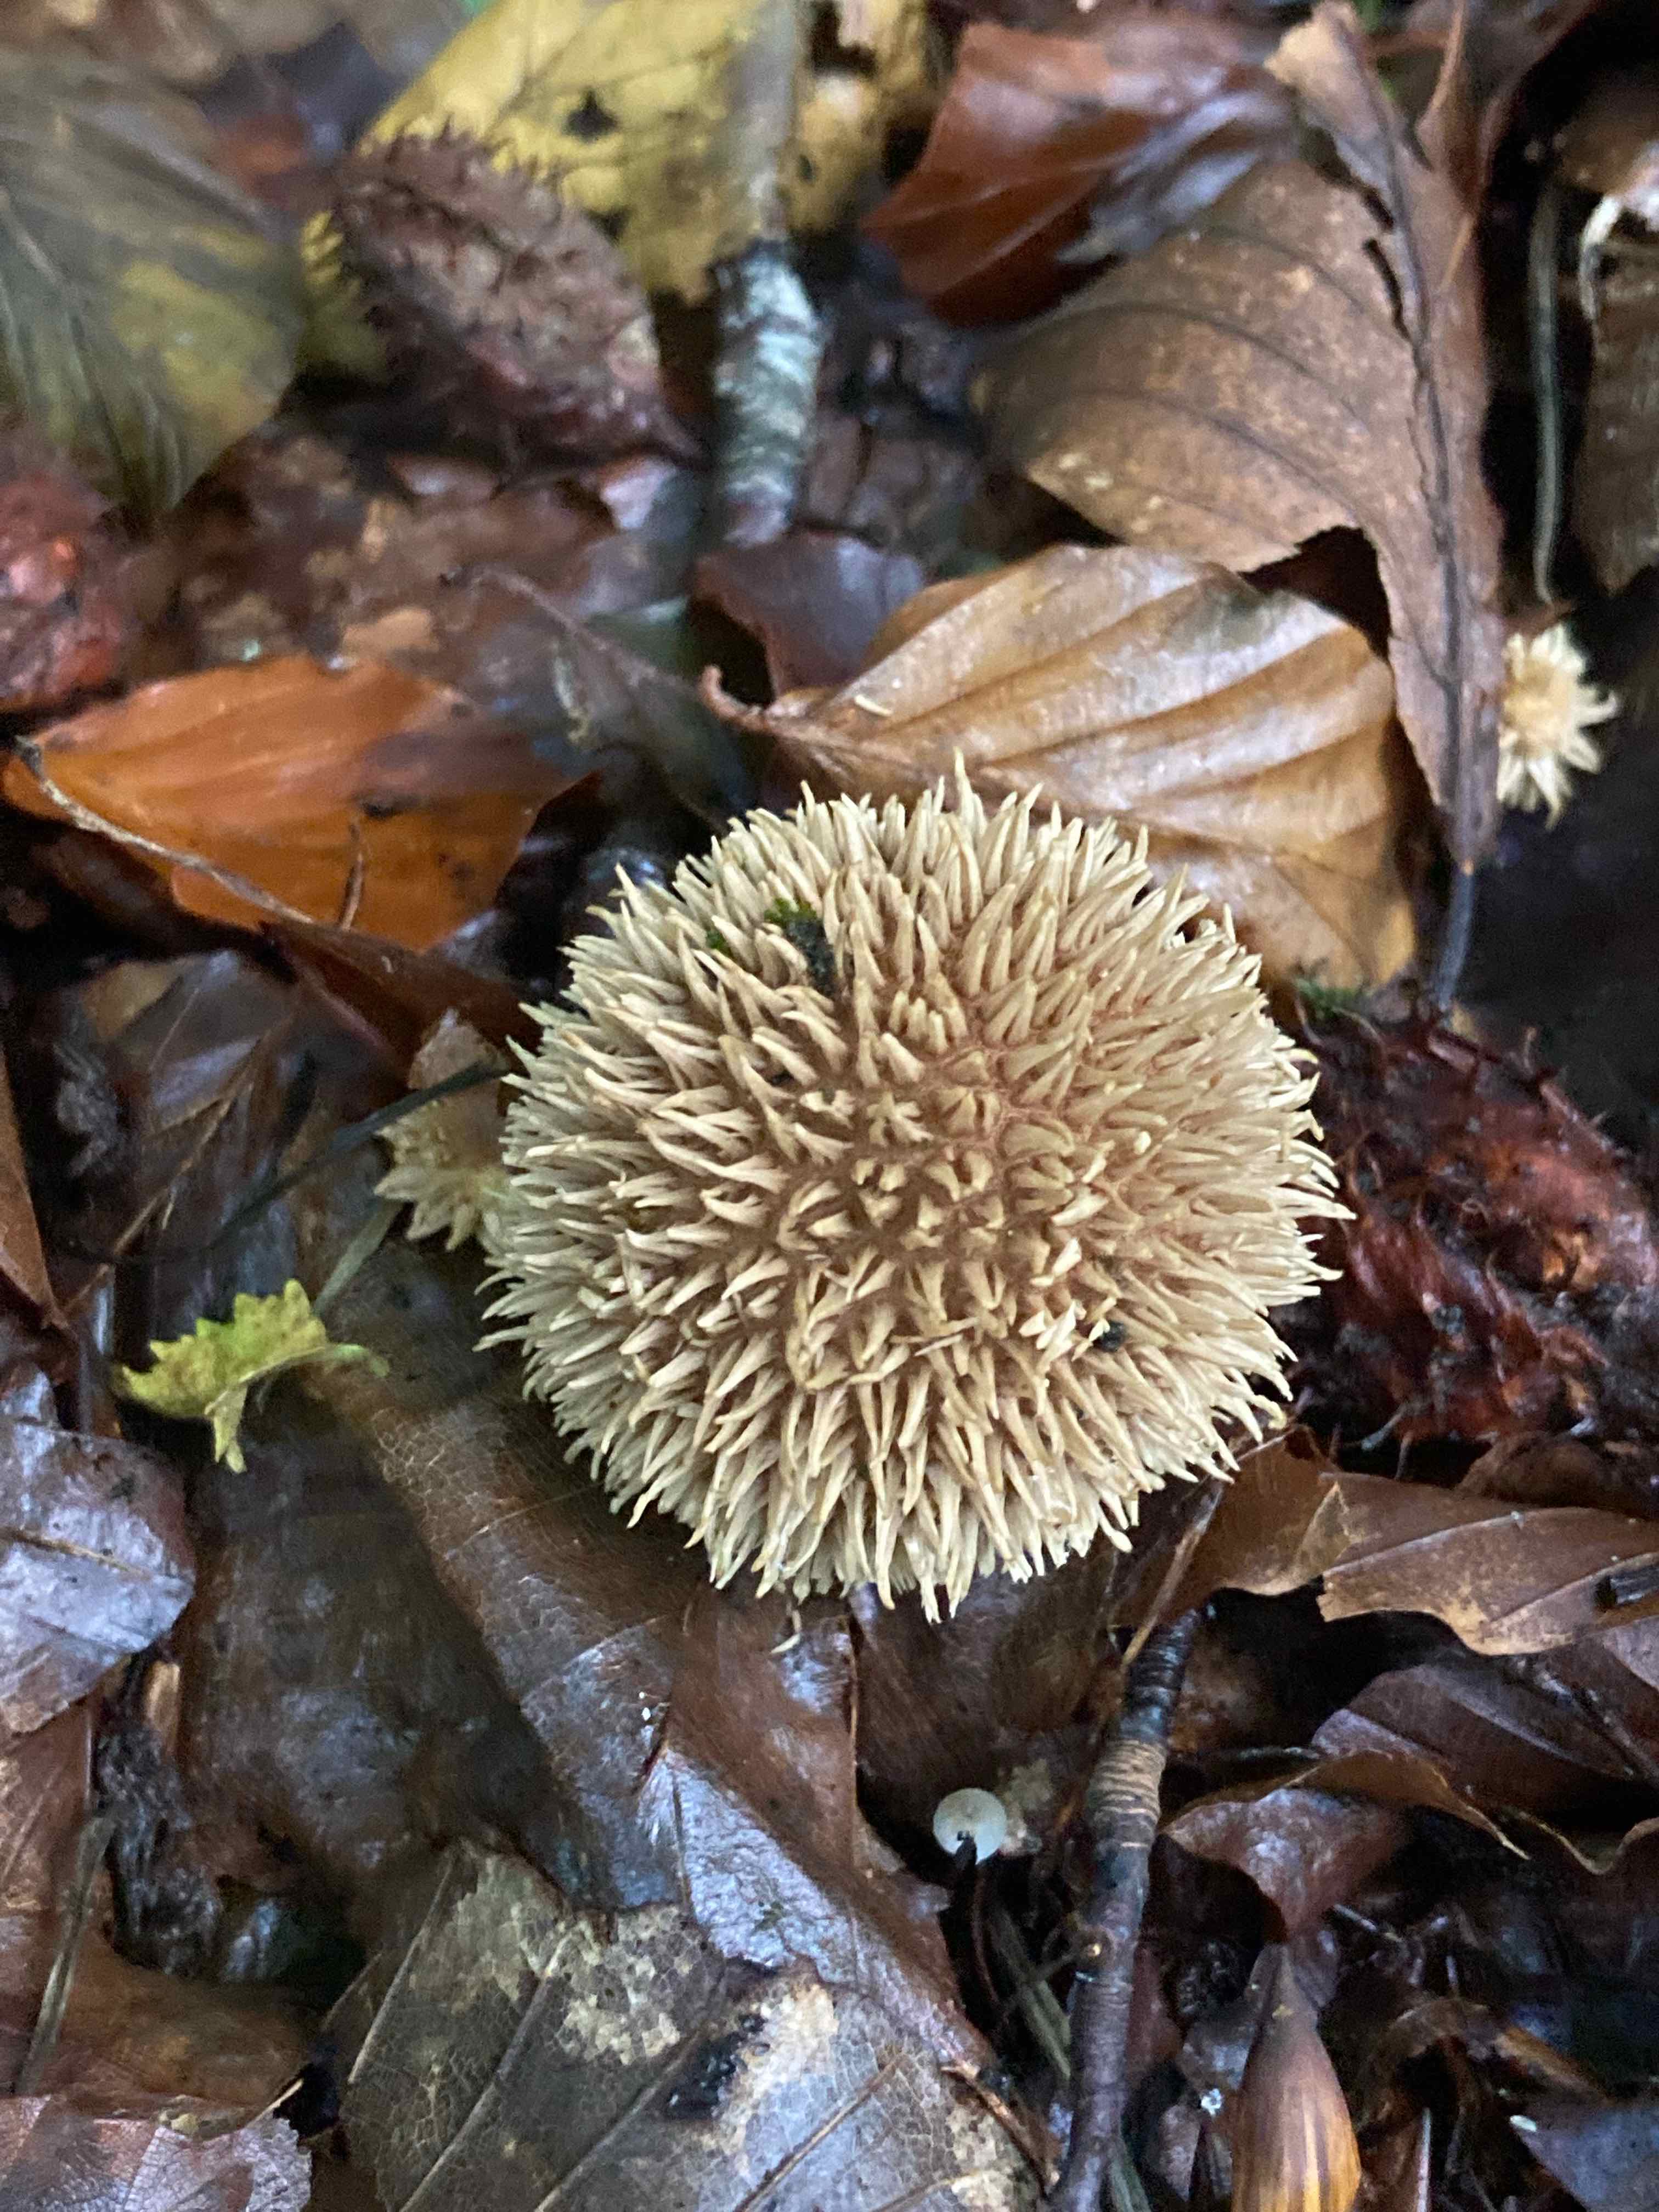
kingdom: Fungi
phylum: Basidiomycota
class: Agaricomycetes
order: Agaricales
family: Lycoperdaceae
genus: Lycoperdon
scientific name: Lycoperdon echinatum
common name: pindsvine-støvbold
